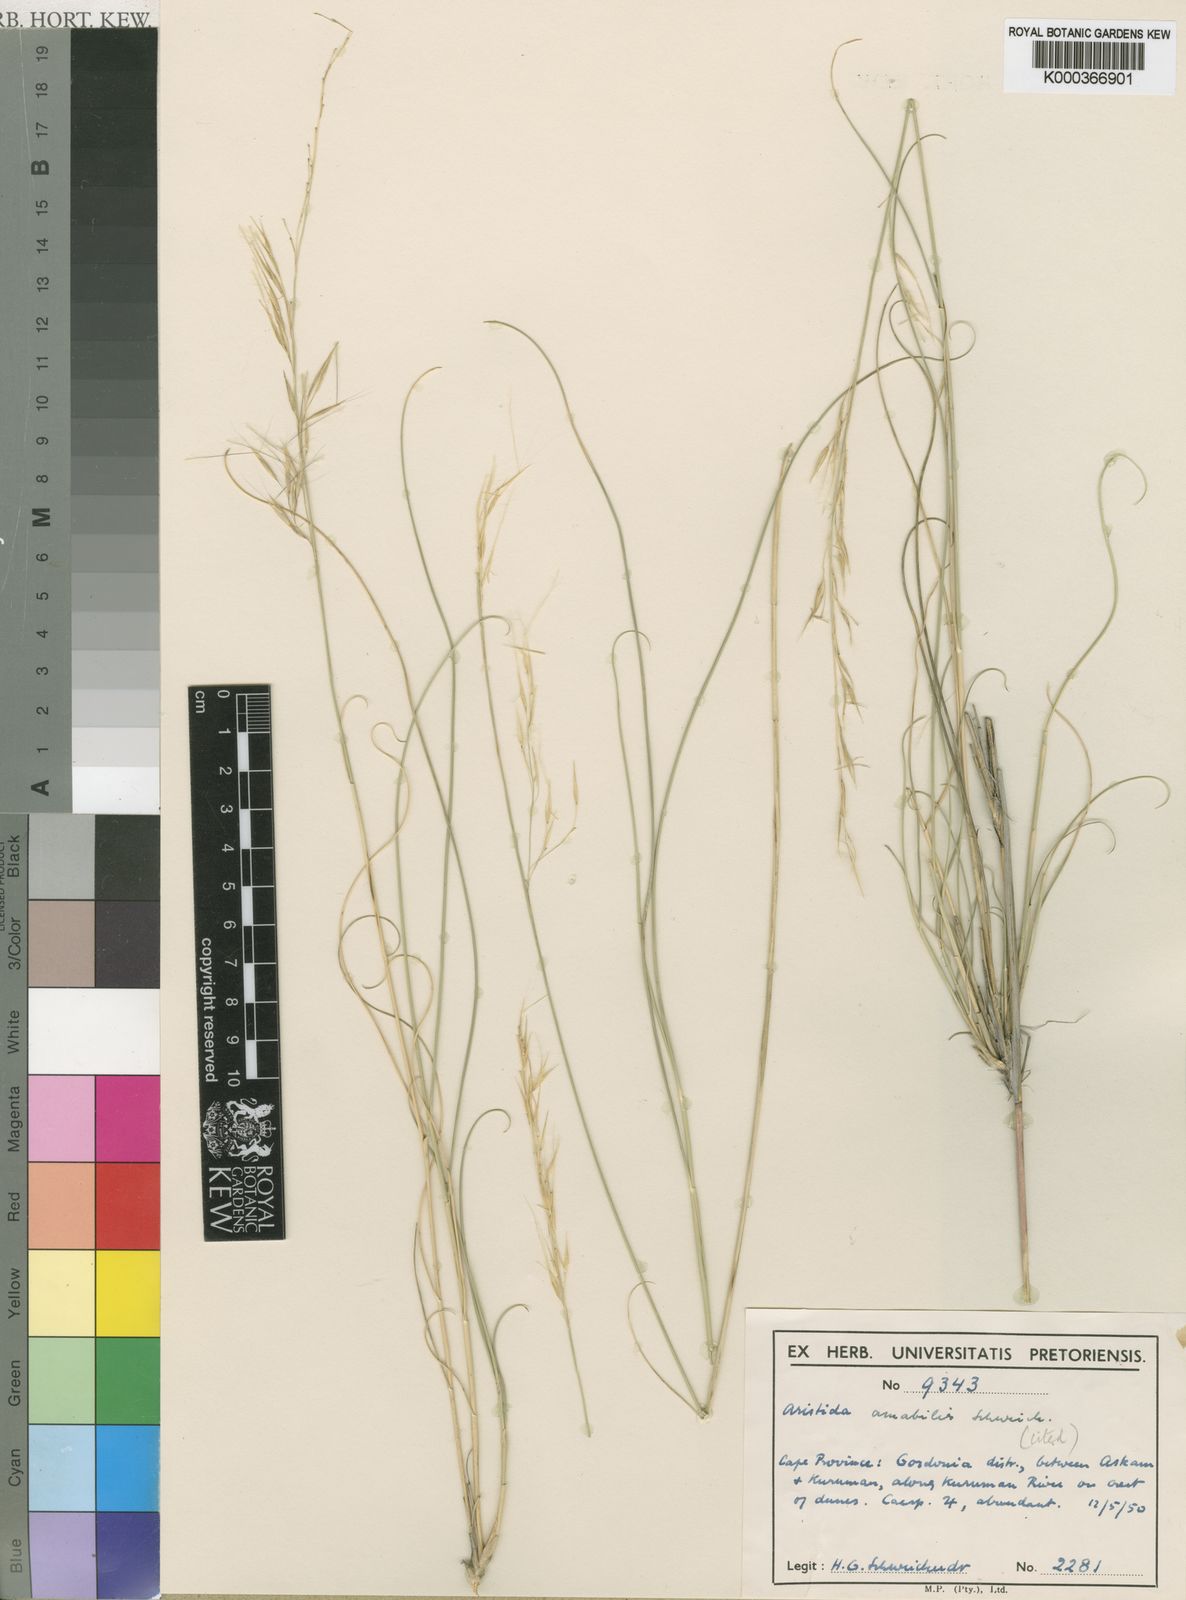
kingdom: Plantae
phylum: Tracheophyta
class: Liliopsida
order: Poales
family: Poaceae
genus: Stipagrostis
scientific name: Stipagrostis amabilis
